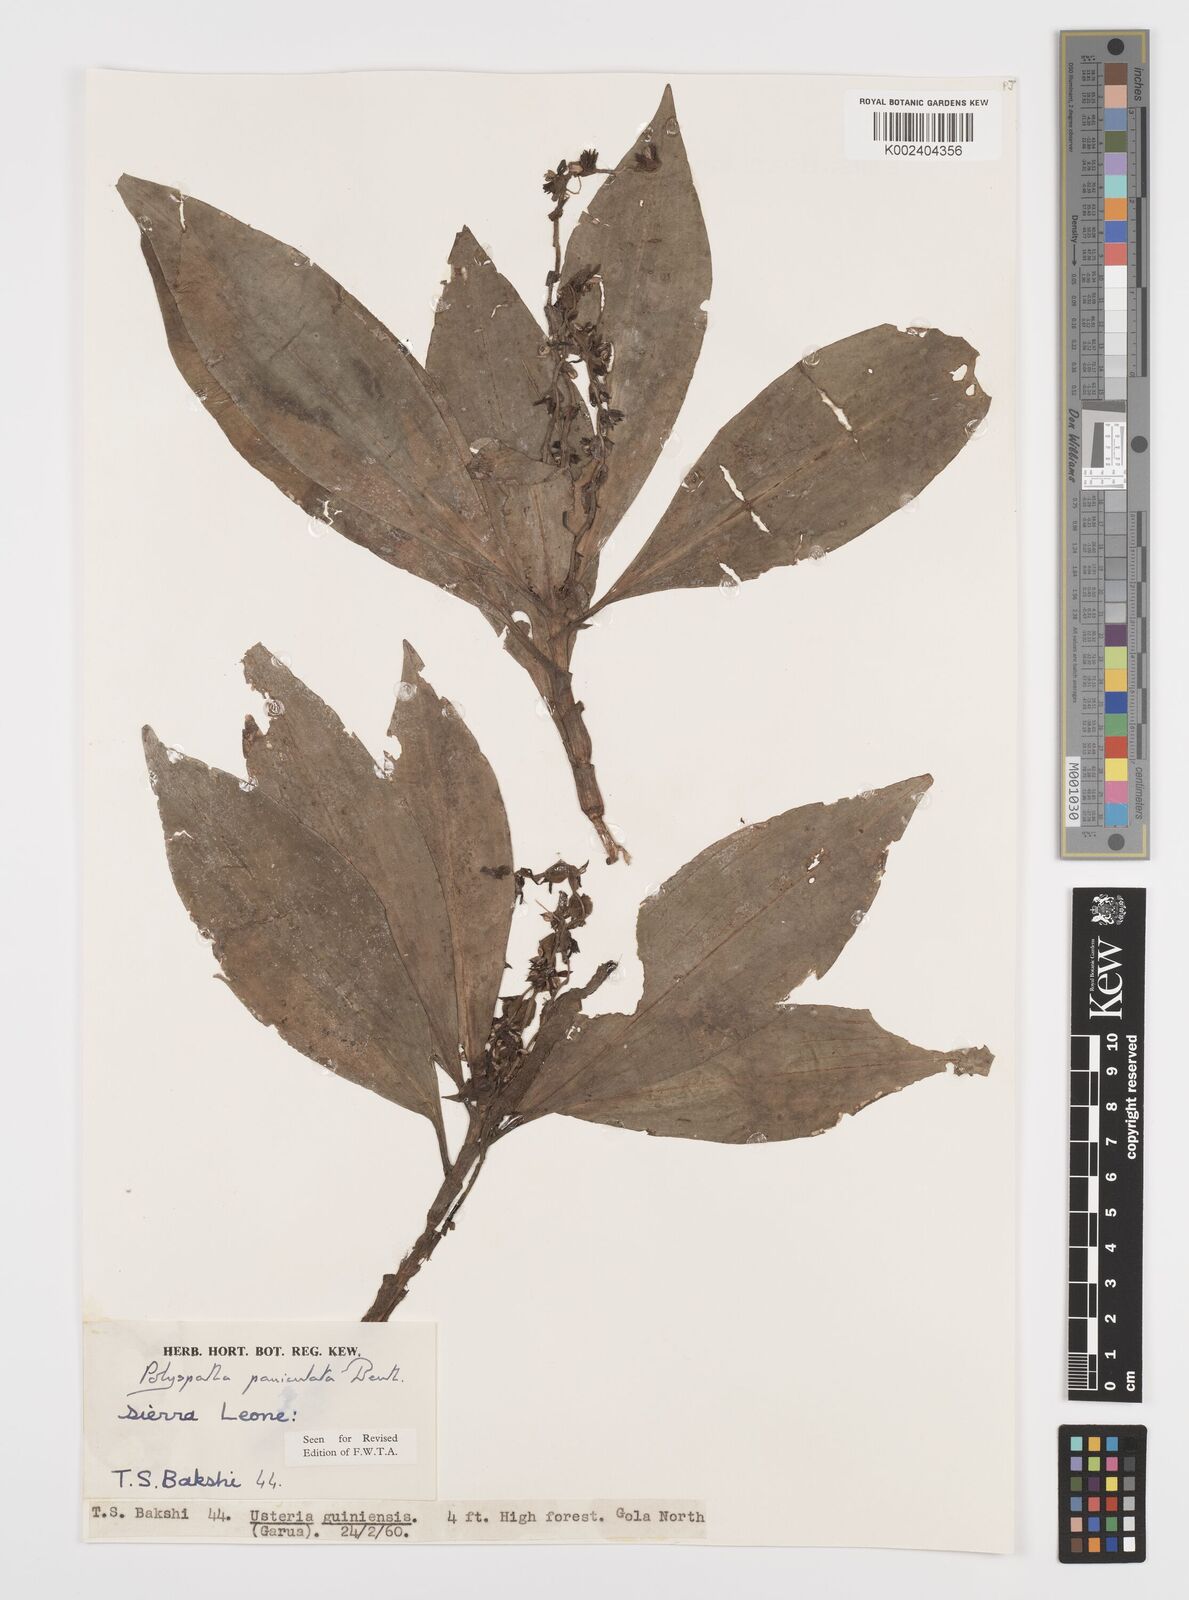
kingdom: Plantae
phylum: Tracheophyta
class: Liliopsida
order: Commelinales
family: Commelinaceae
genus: Polyspatha
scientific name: Polyspatha paniculata
